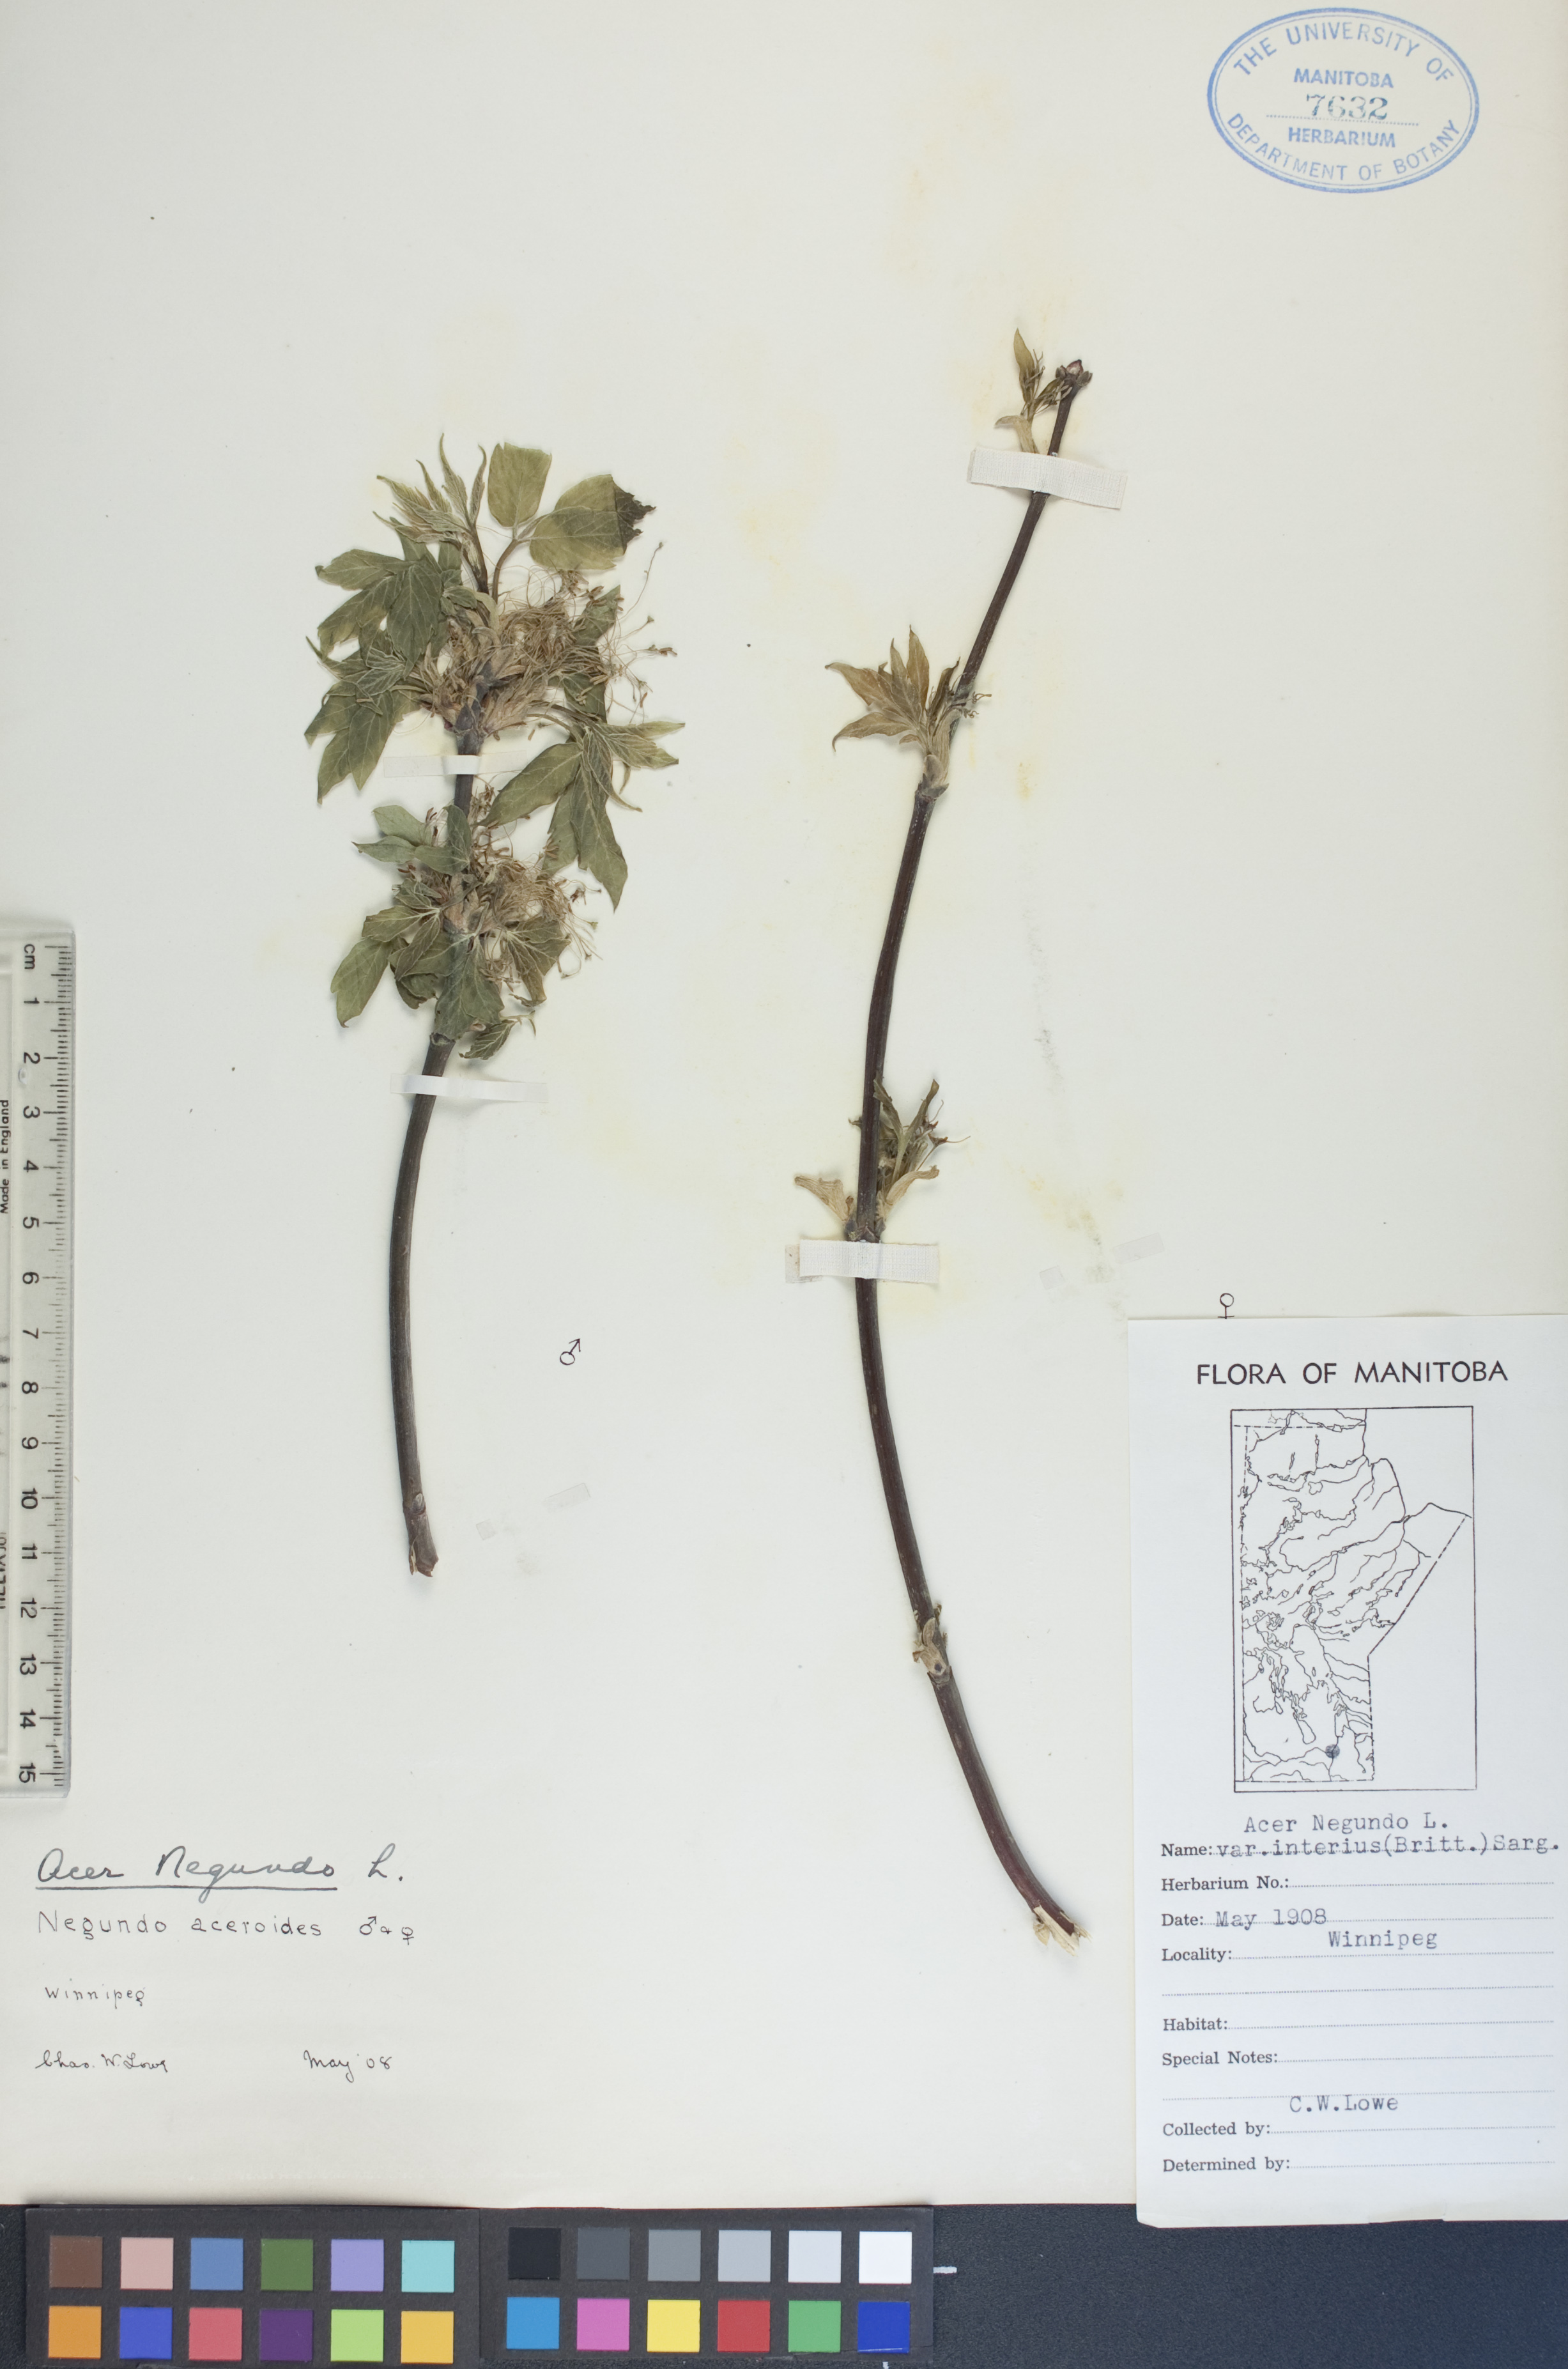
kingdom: Plantae
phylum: Tracheophyta
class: Magnoliopsida
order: Sapindales
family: Sapindaceae
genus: Acer
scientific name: Acer negundo
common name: Ashleaf maple
